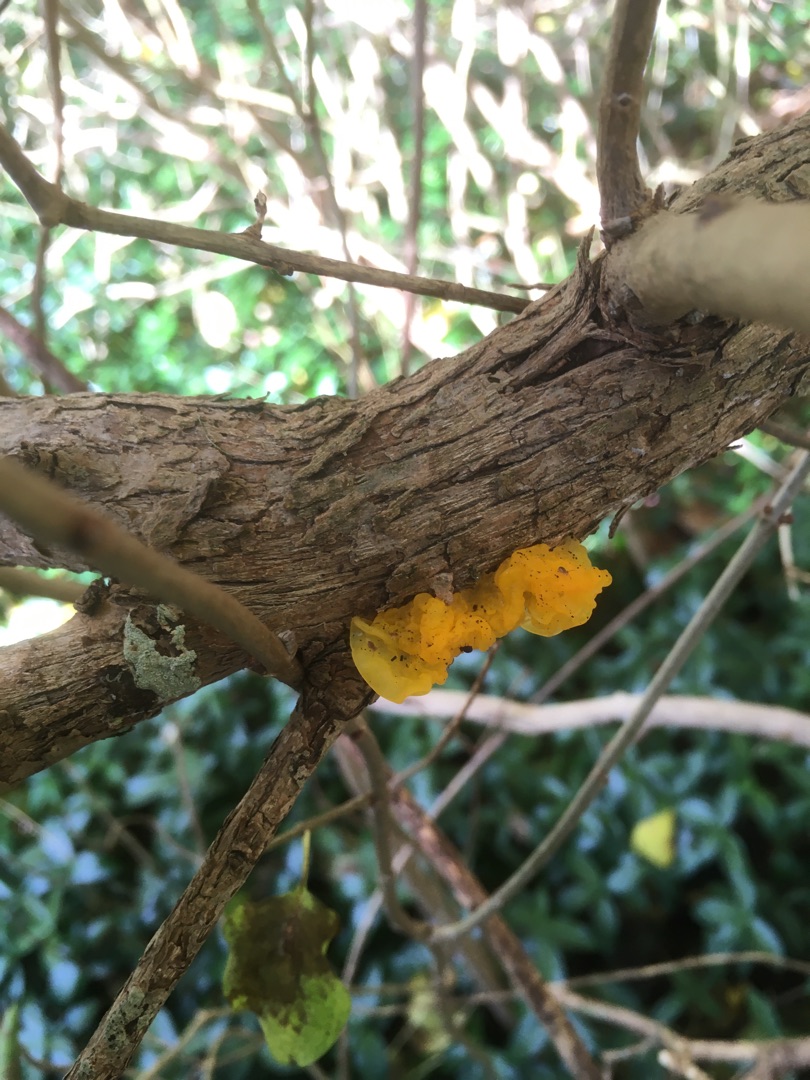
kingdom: Fungi
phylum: Basidiomycota
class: Tremellomycetes
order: Tremellales
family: Tremellaceae
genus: Tremella
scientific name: Tremella mesenterica
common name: Gul bævresvamp
